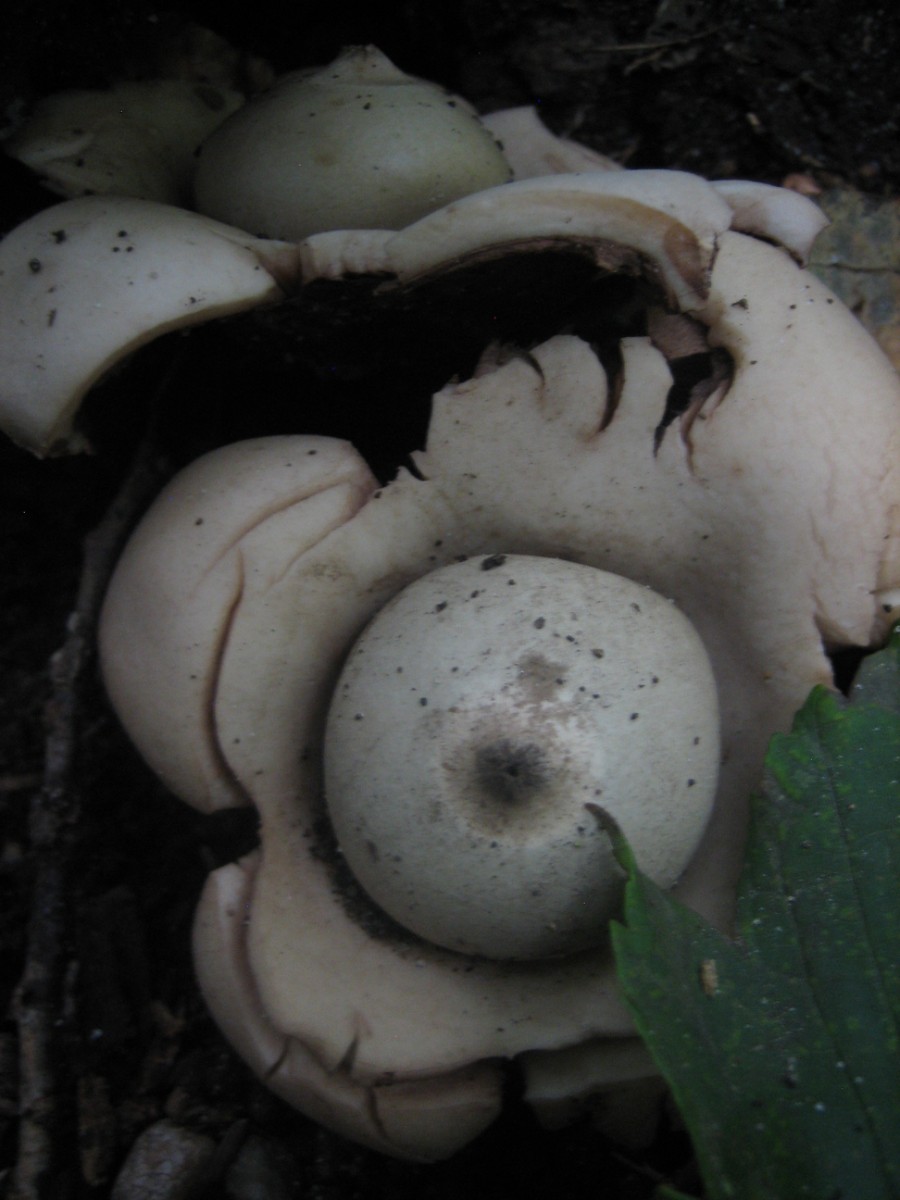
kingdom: Fungi
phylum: Basidiomycota
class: Agaricomycetes
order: Geastrales
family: Geastraceae
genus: Geastrum
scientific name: Geastrum michelianum
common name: kødet stjernebold
